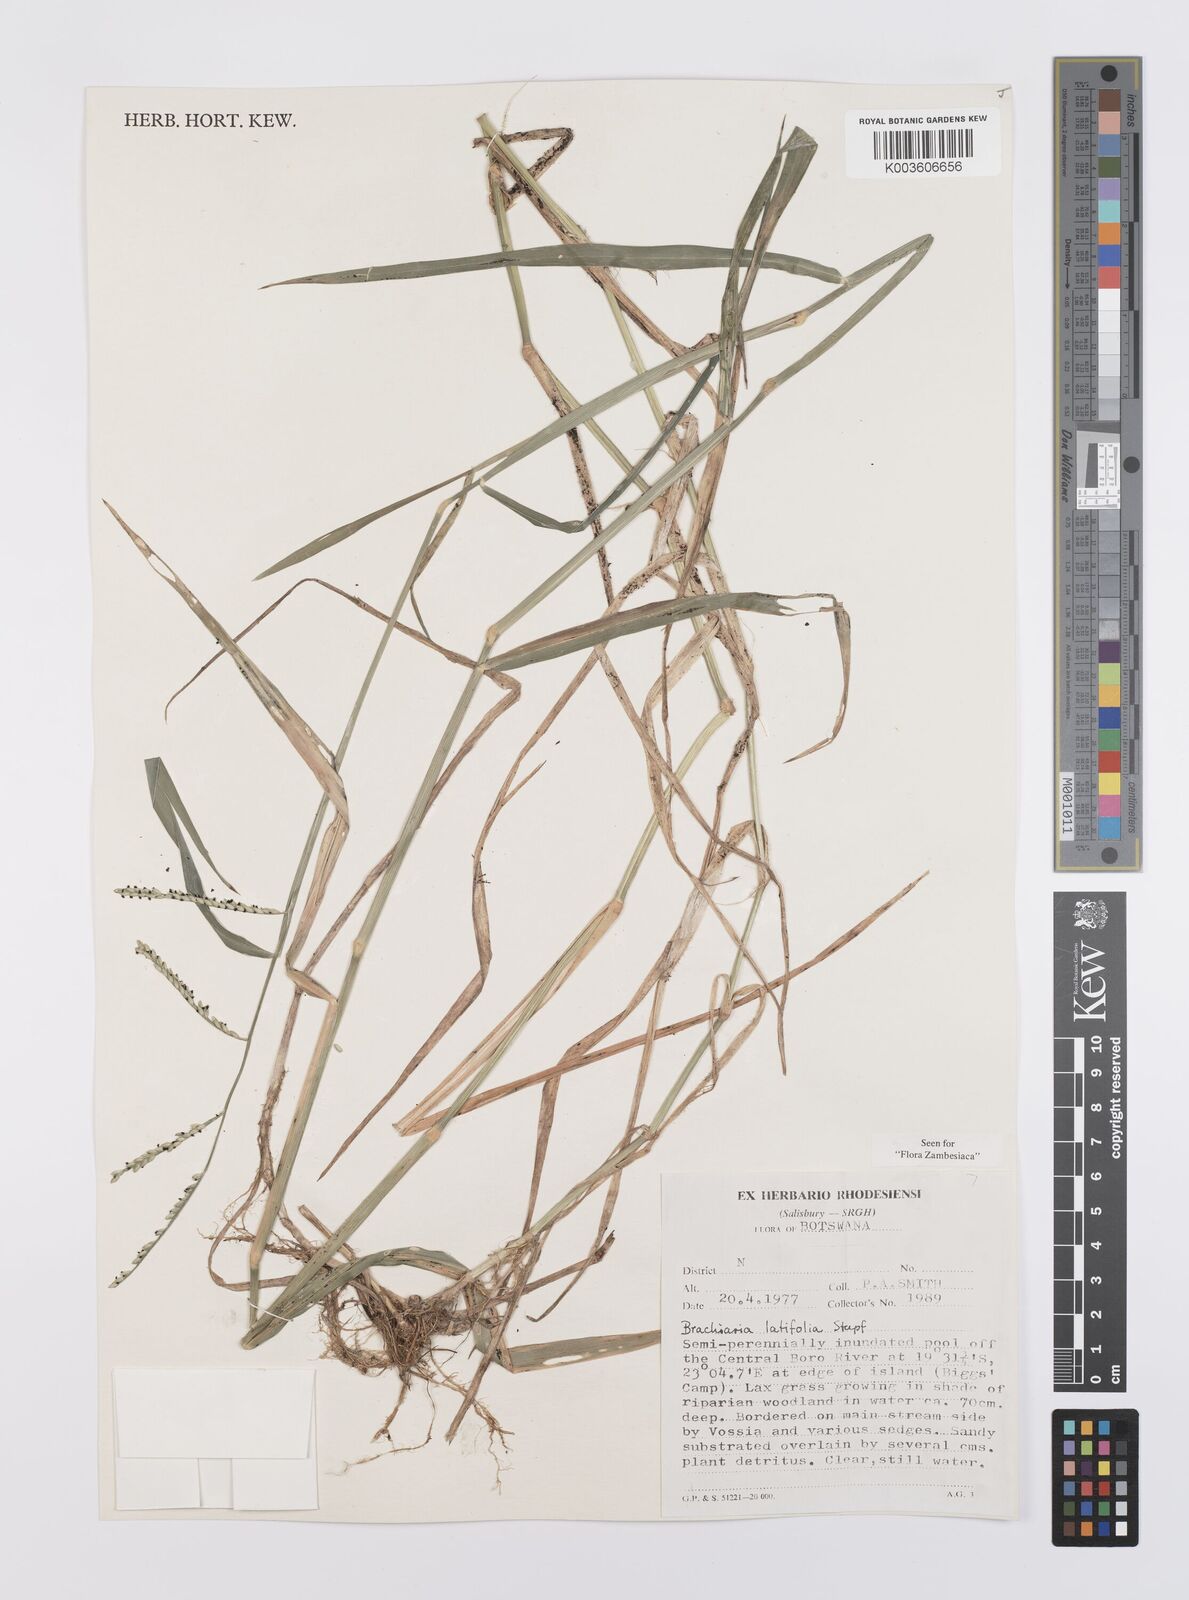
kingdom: Plantae
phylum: Tracheophyta
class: Liliopsida
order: Poales
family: Poaceae
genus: Urochloa
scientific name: Urochloa arrecta
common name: African signalgrass
